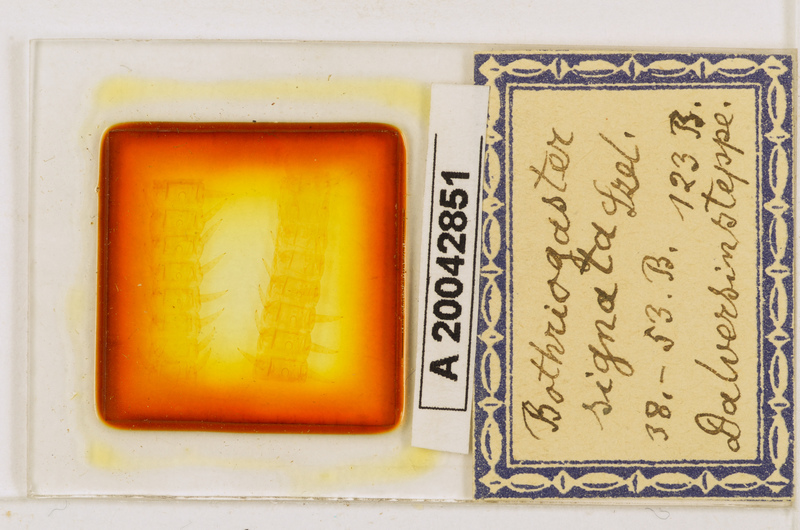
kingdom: Animalia
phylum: Arthropoda
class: Chilopoda
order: Geophilomorpha
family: Himantariidae
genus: Bothriogaster
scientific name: Bothriogaster signata
